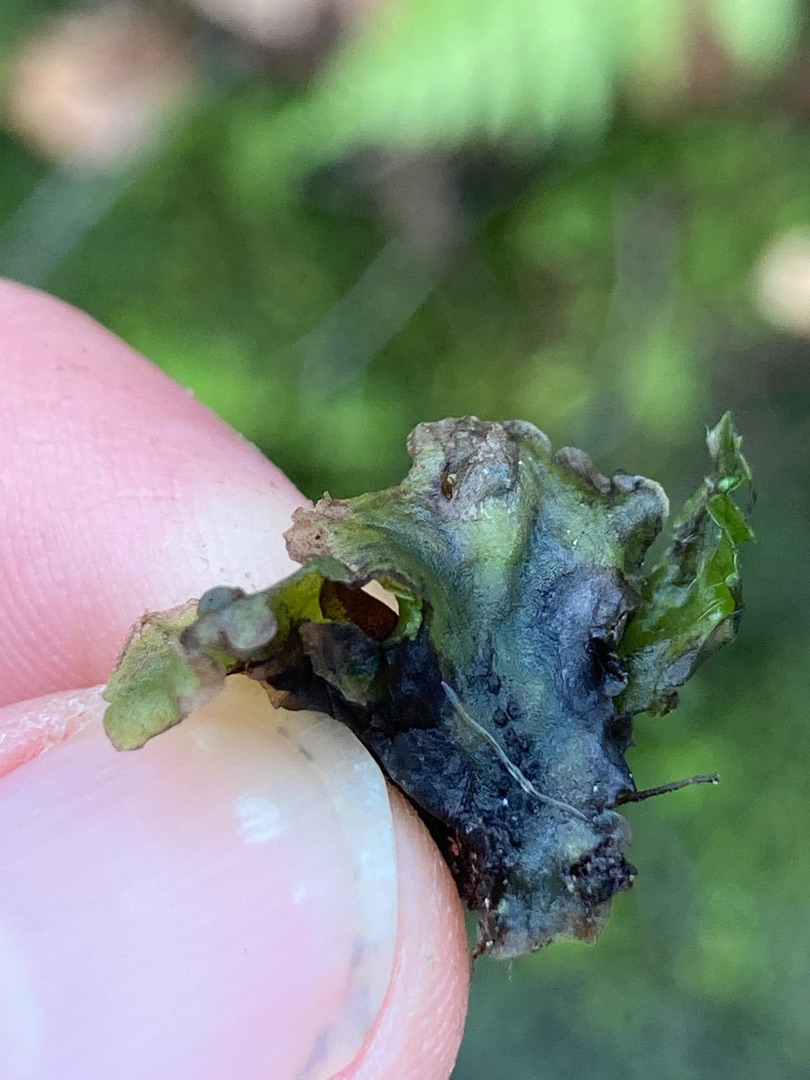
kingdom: Plantae
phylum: Marchantiophyta
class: Jungermanniopsida
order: Pelliales
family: Pelliaceae
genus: Pellia
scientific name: Pellia epiphylla
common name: Enbo ribbeløv
